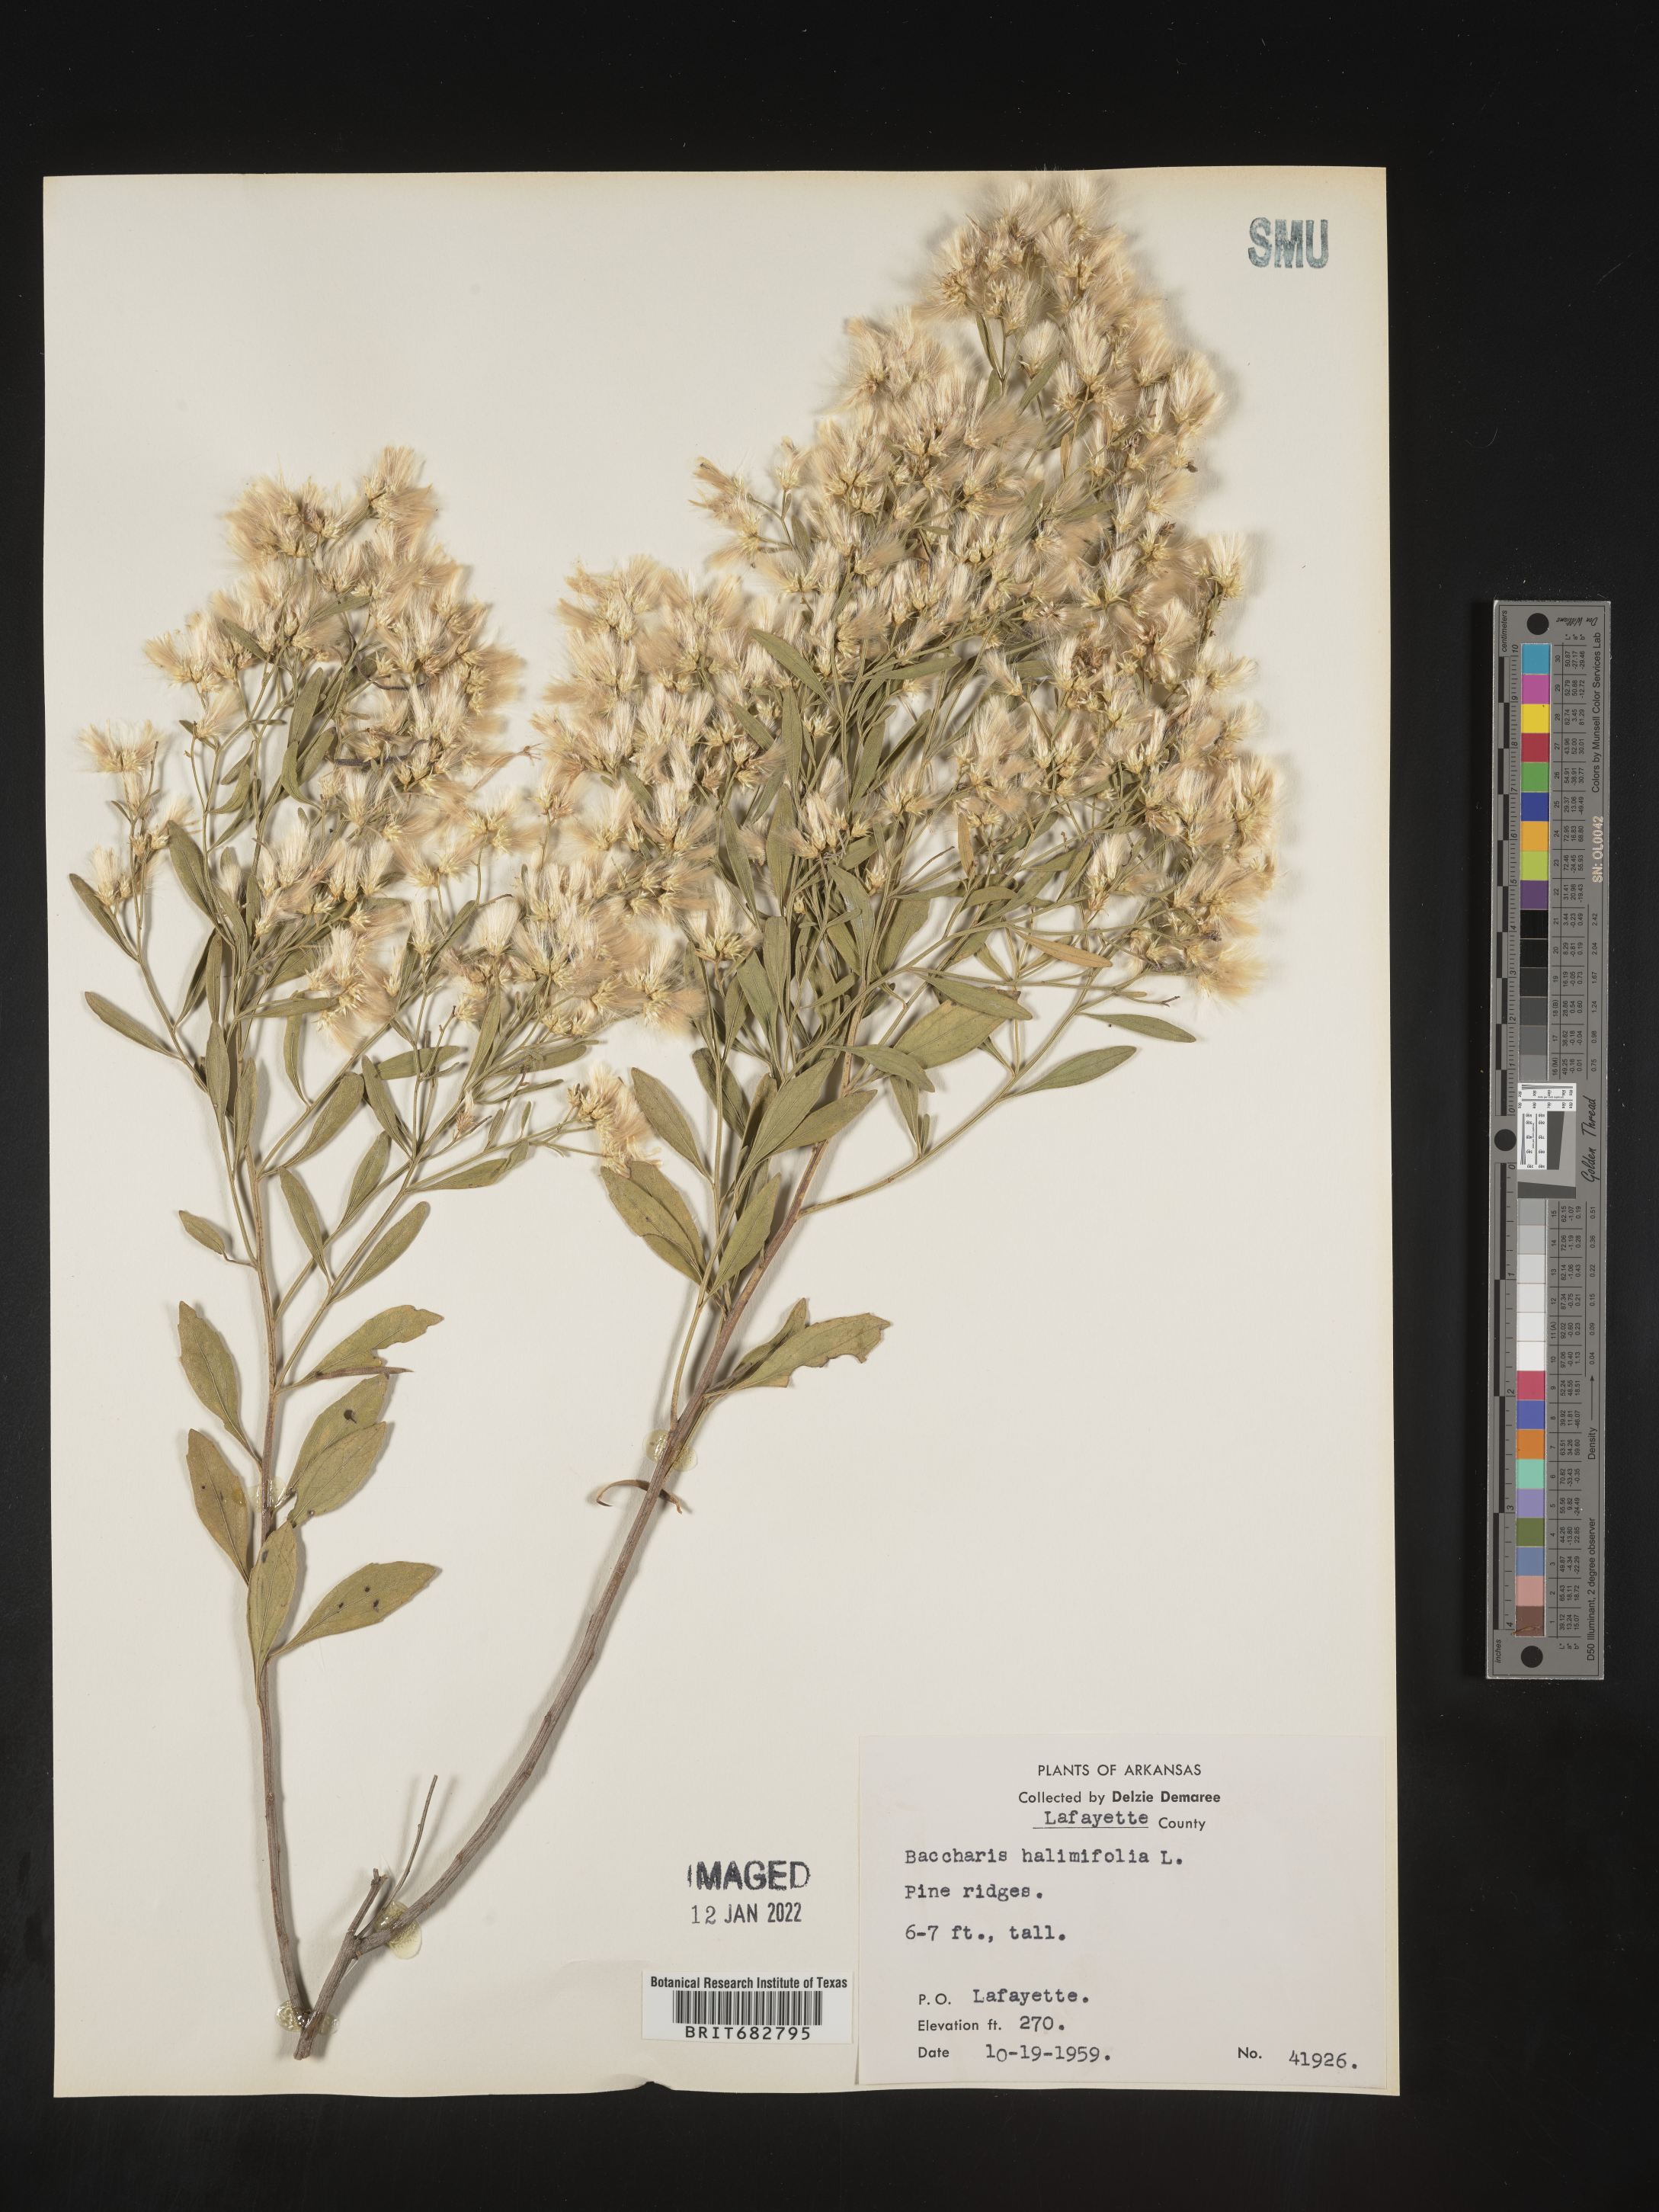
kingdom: Plantae
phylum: Tracheophyta
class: Magnoliopsida
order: Asterales
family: Asteraceae
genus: Nidorella
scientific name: Nidorella ivifolia
